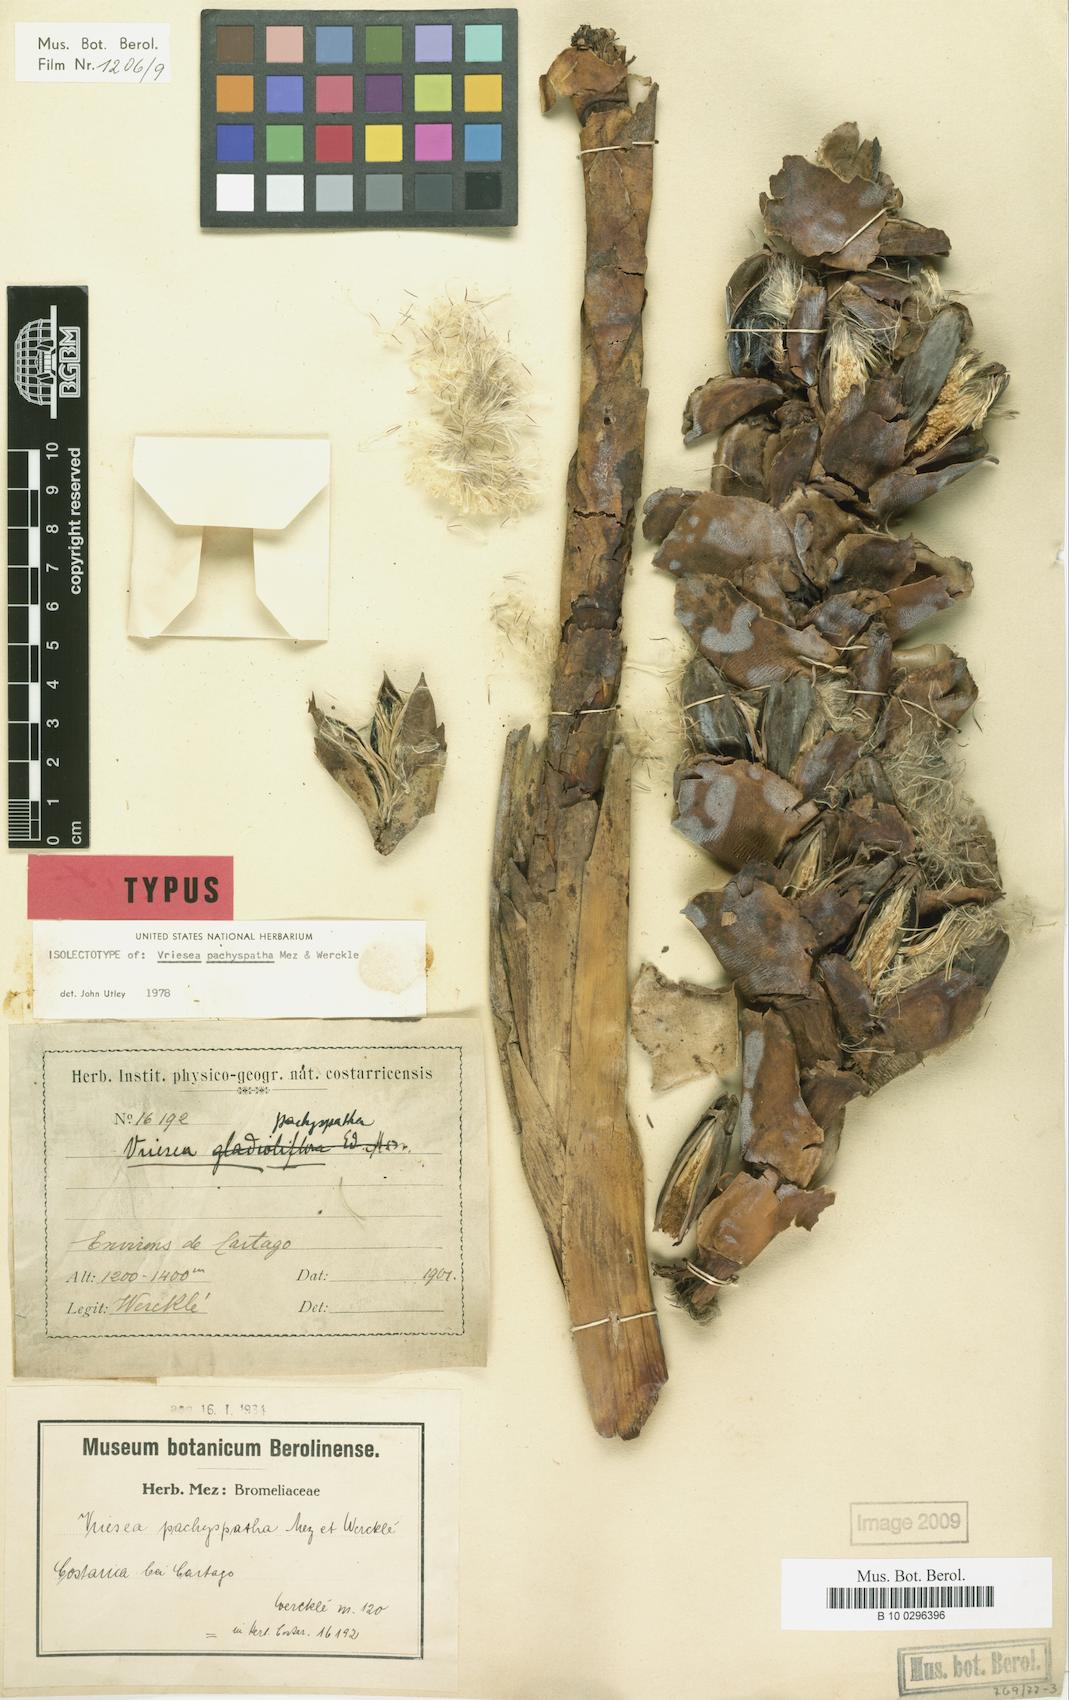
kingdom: Plantae
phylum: Tracheophyta
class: Liliopsida
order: Poales
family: Bromeliaceae
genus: Werauhia
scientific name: Werauhia gladioliflora
